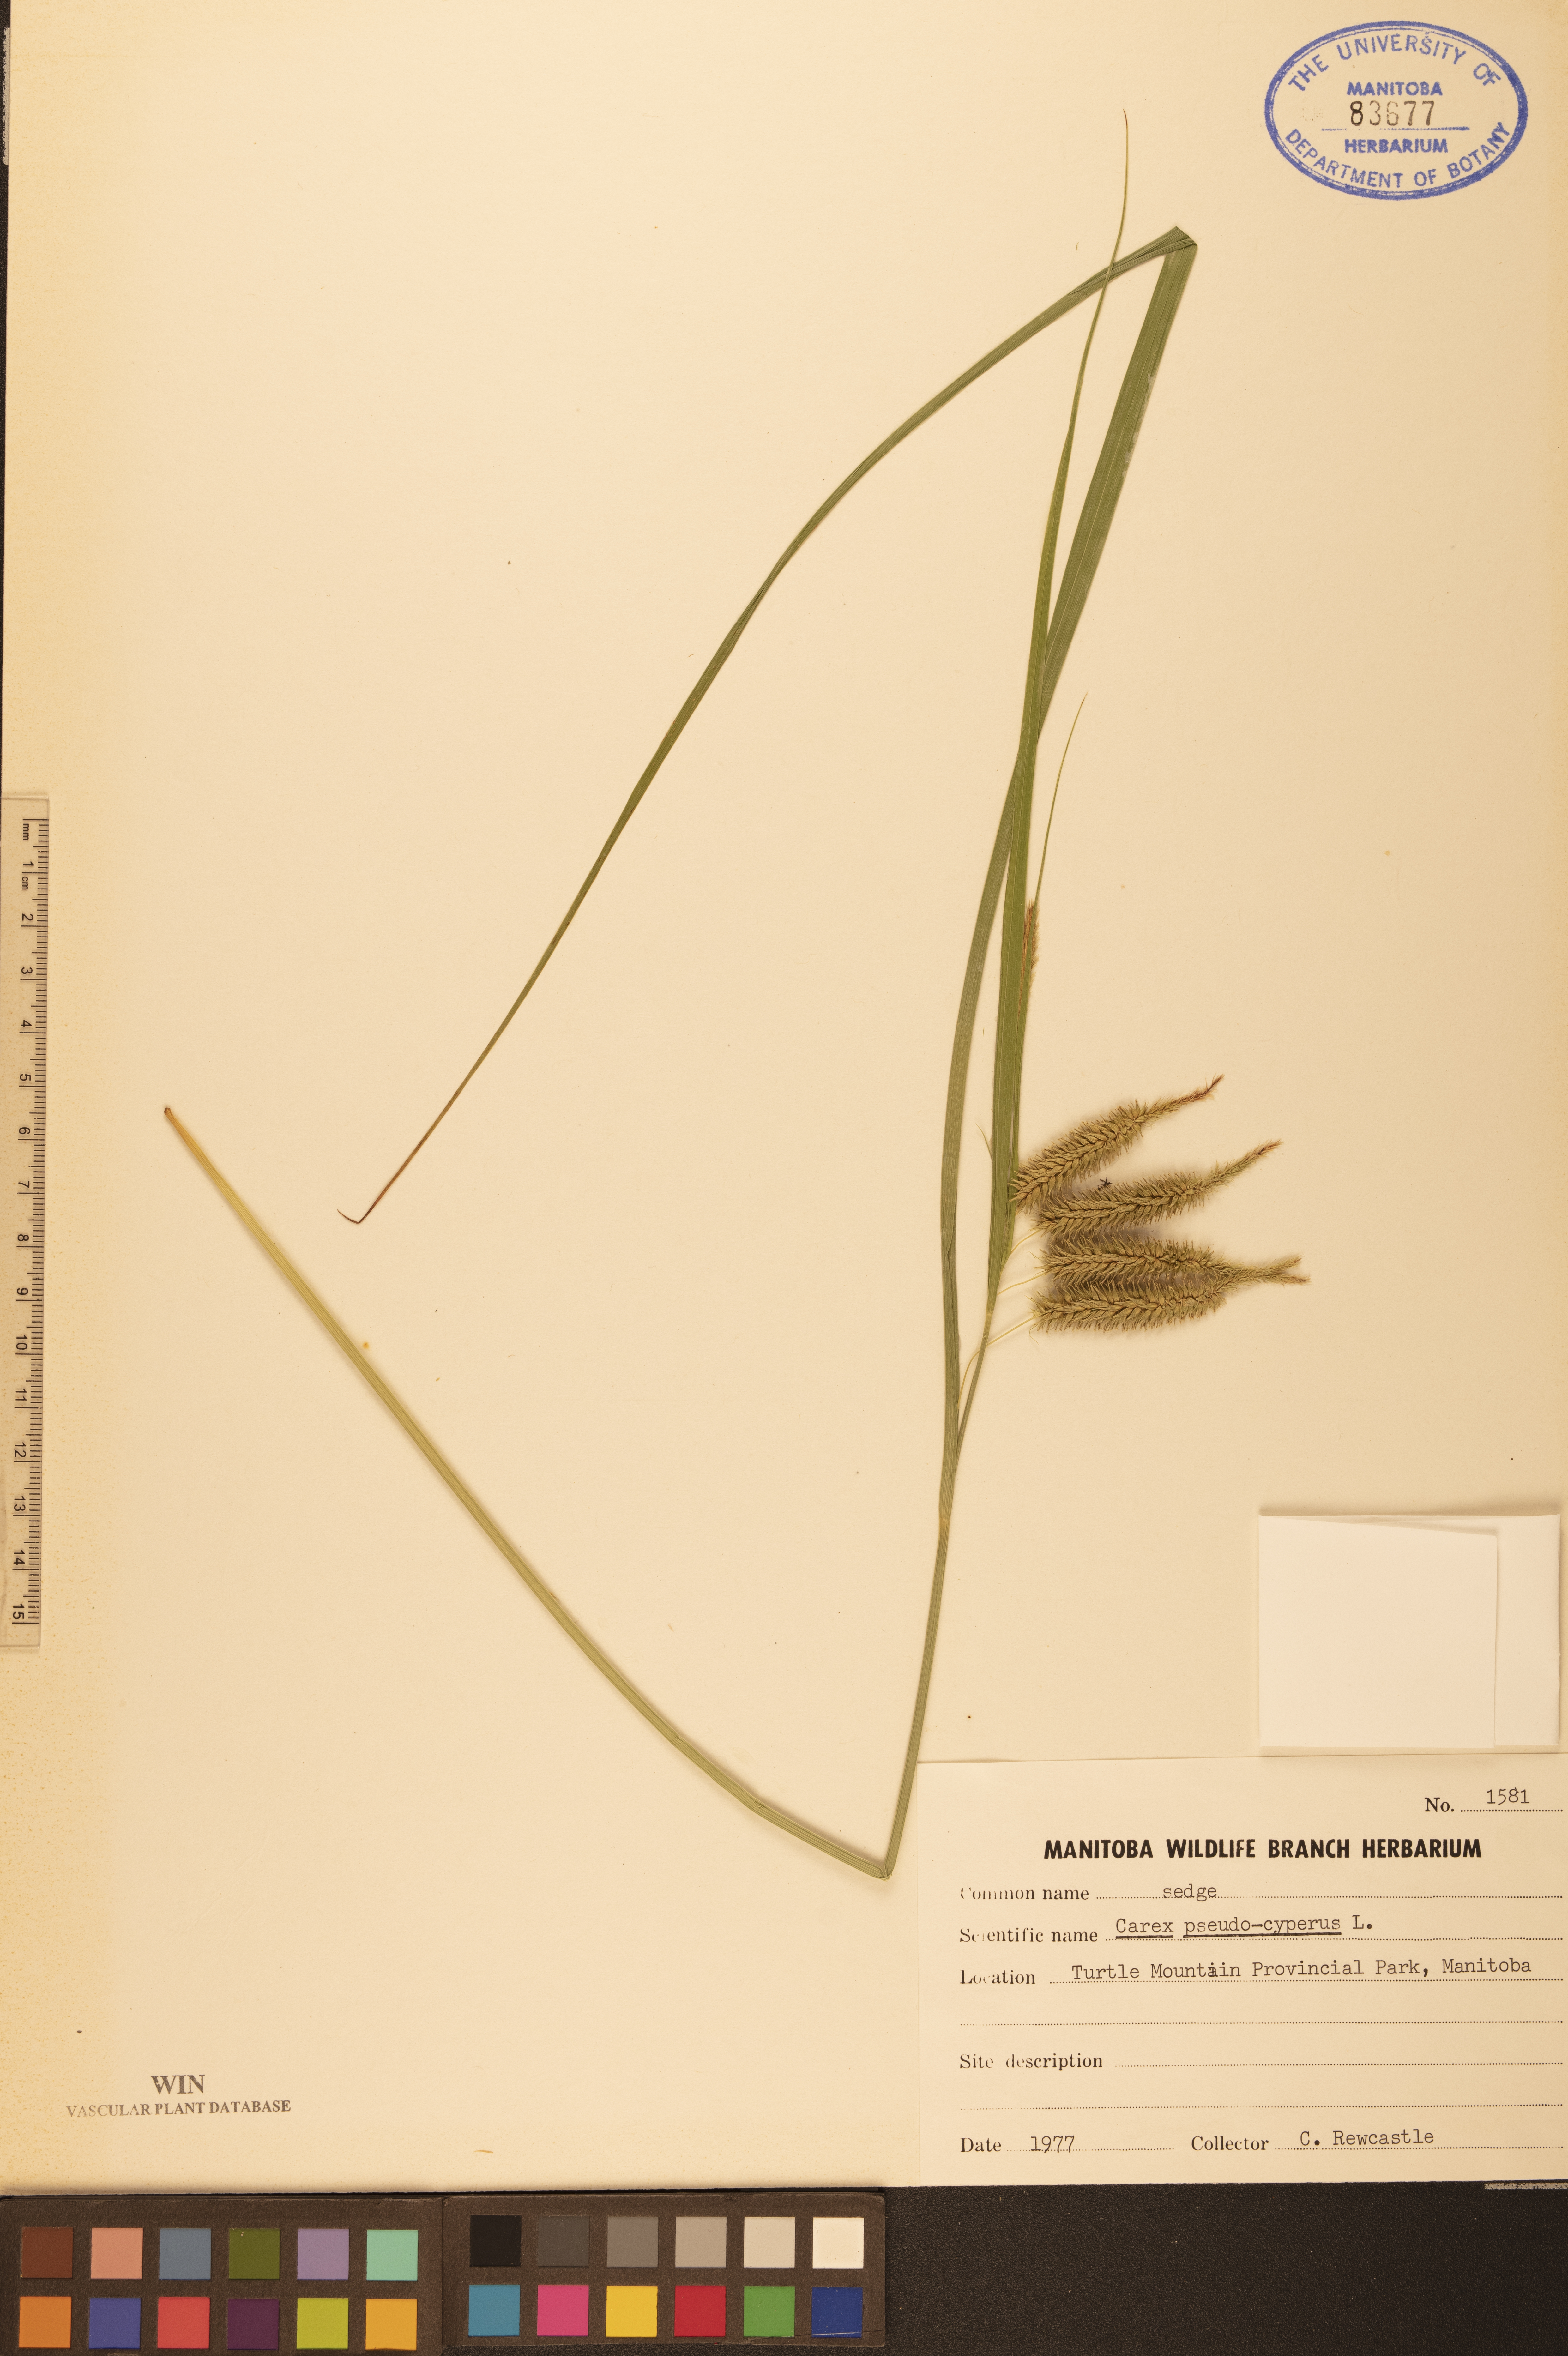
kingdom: Plantae
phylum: Tracheophyta
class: Liliopsida
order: Poales
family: Cyperaceae
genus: Carex
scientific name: Carex pseudocyperus
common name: Cyperus sedge
